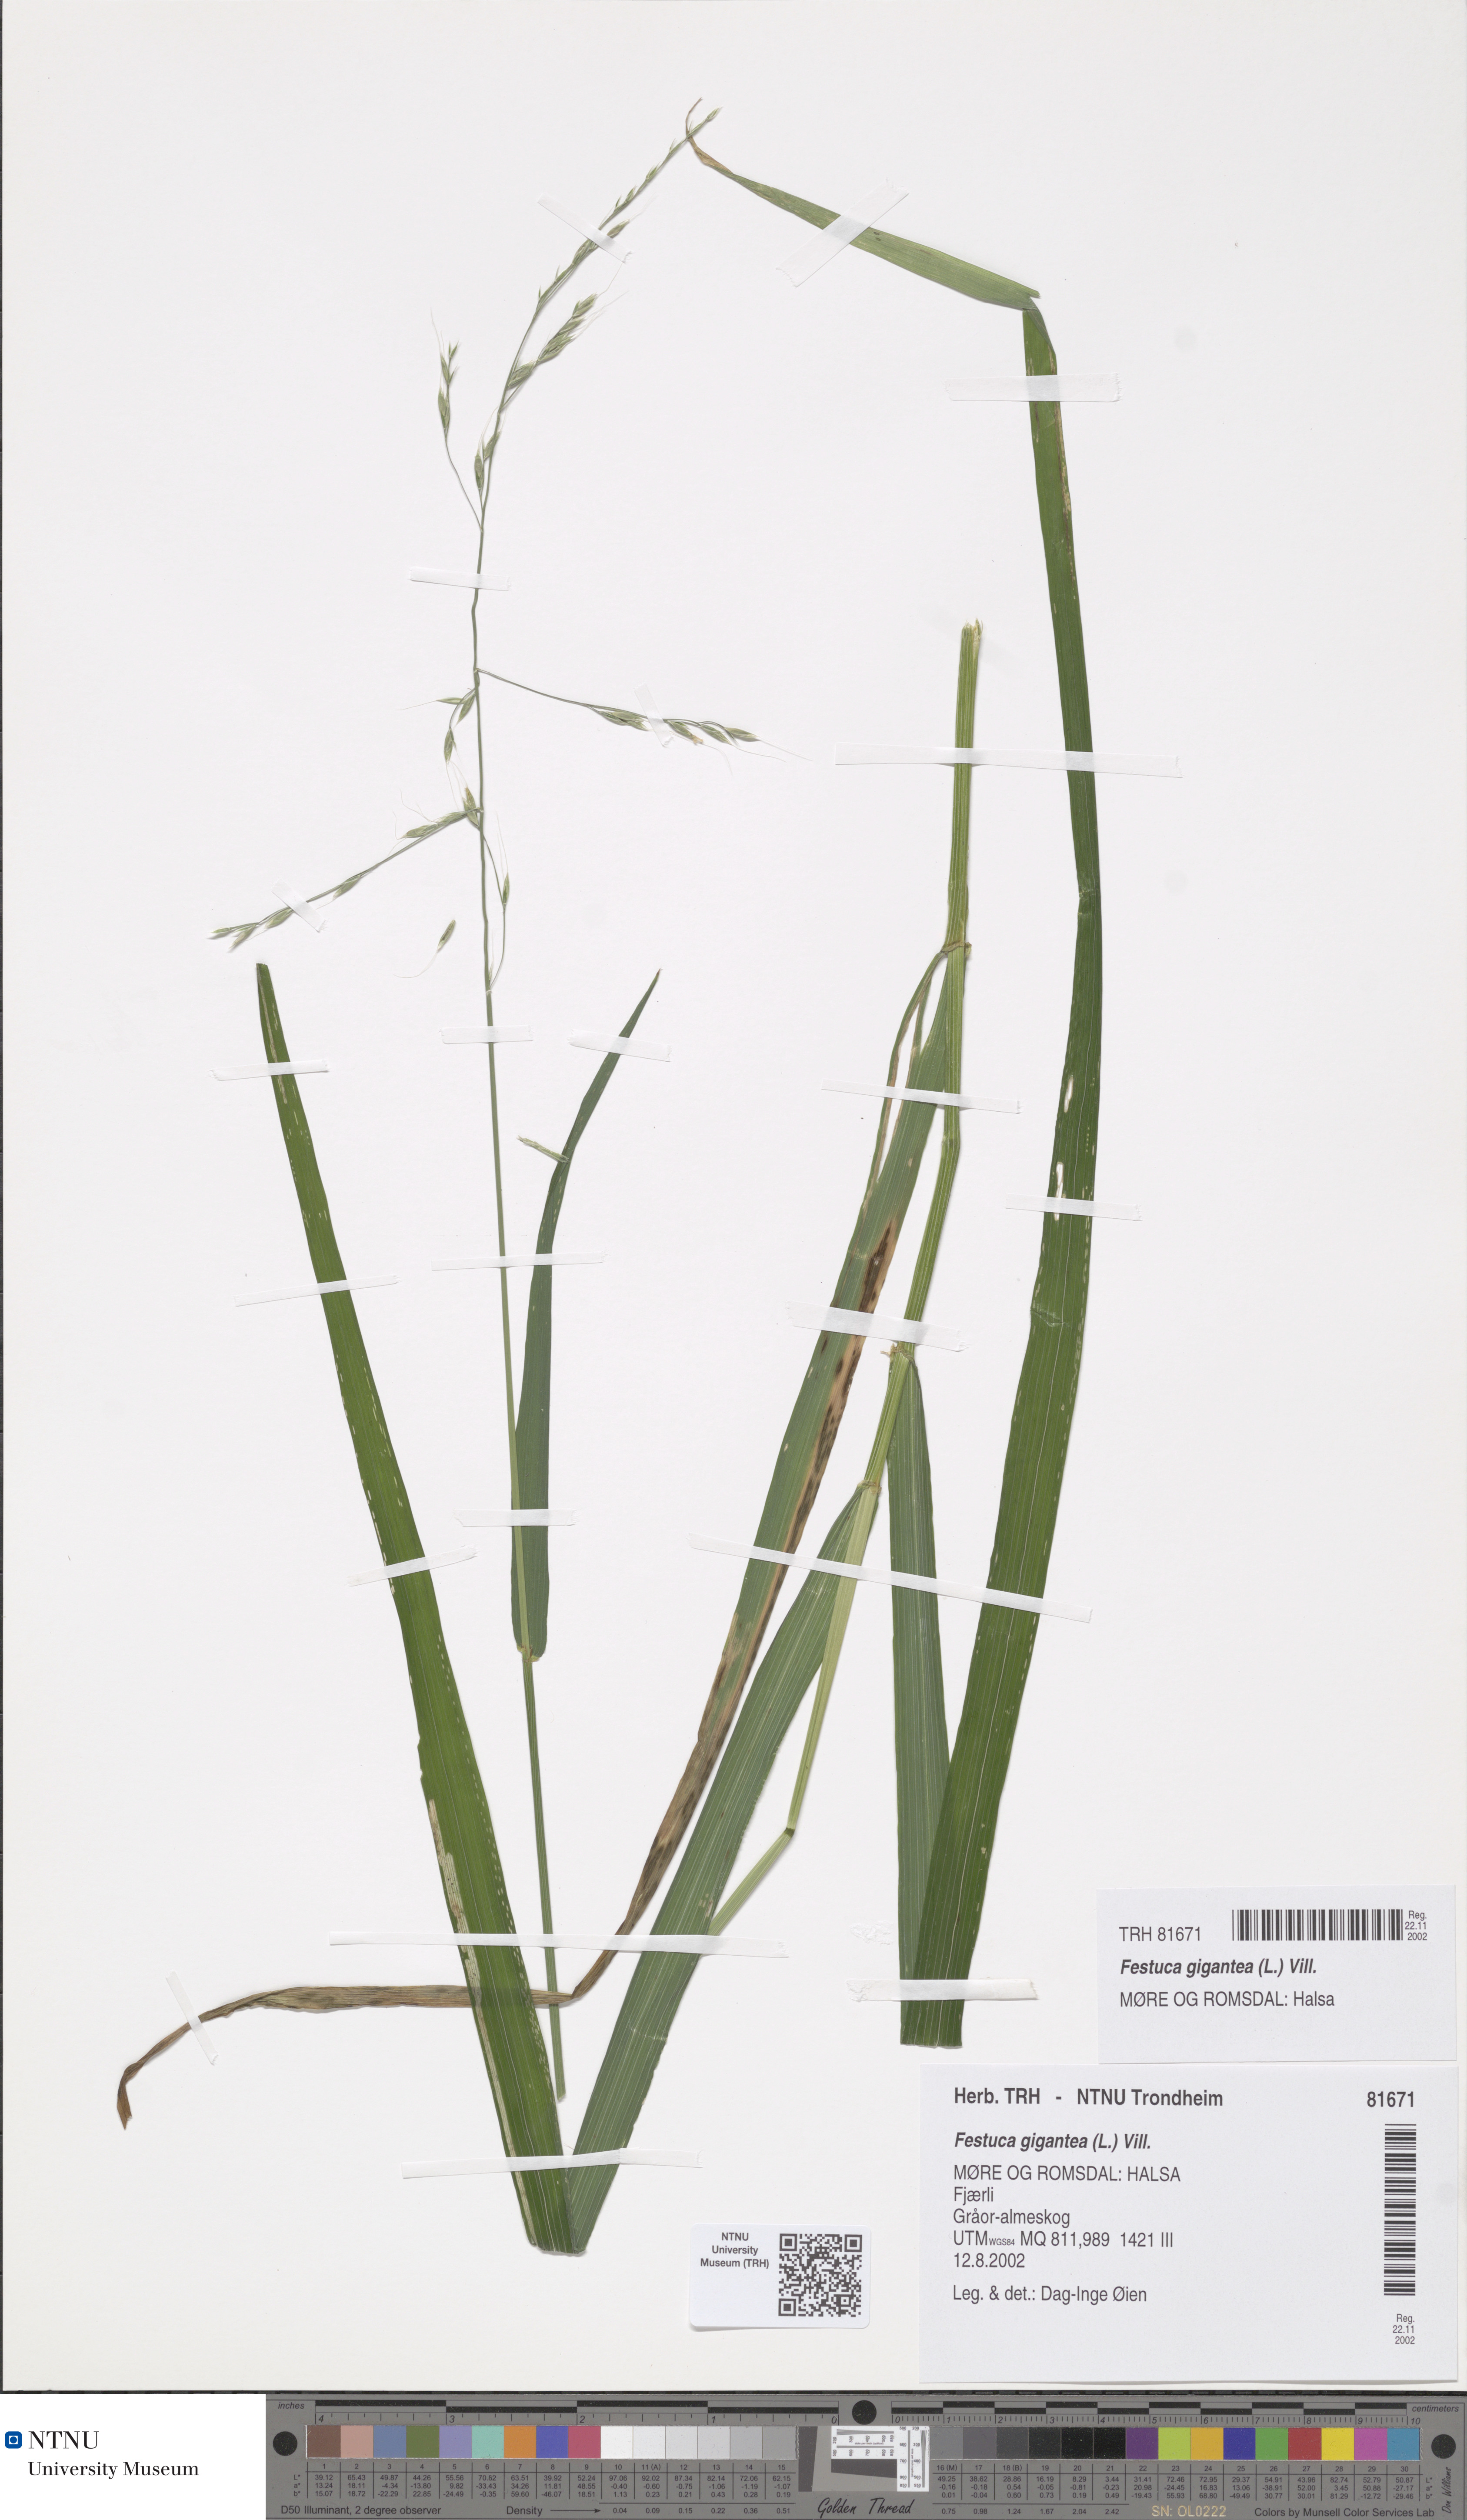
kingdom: Plantae
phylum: Tracheophyta
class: Liliopsida
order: Poales
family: Poaceae
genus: Lolium
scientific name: Lolium giganteum
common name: Giant fescue
